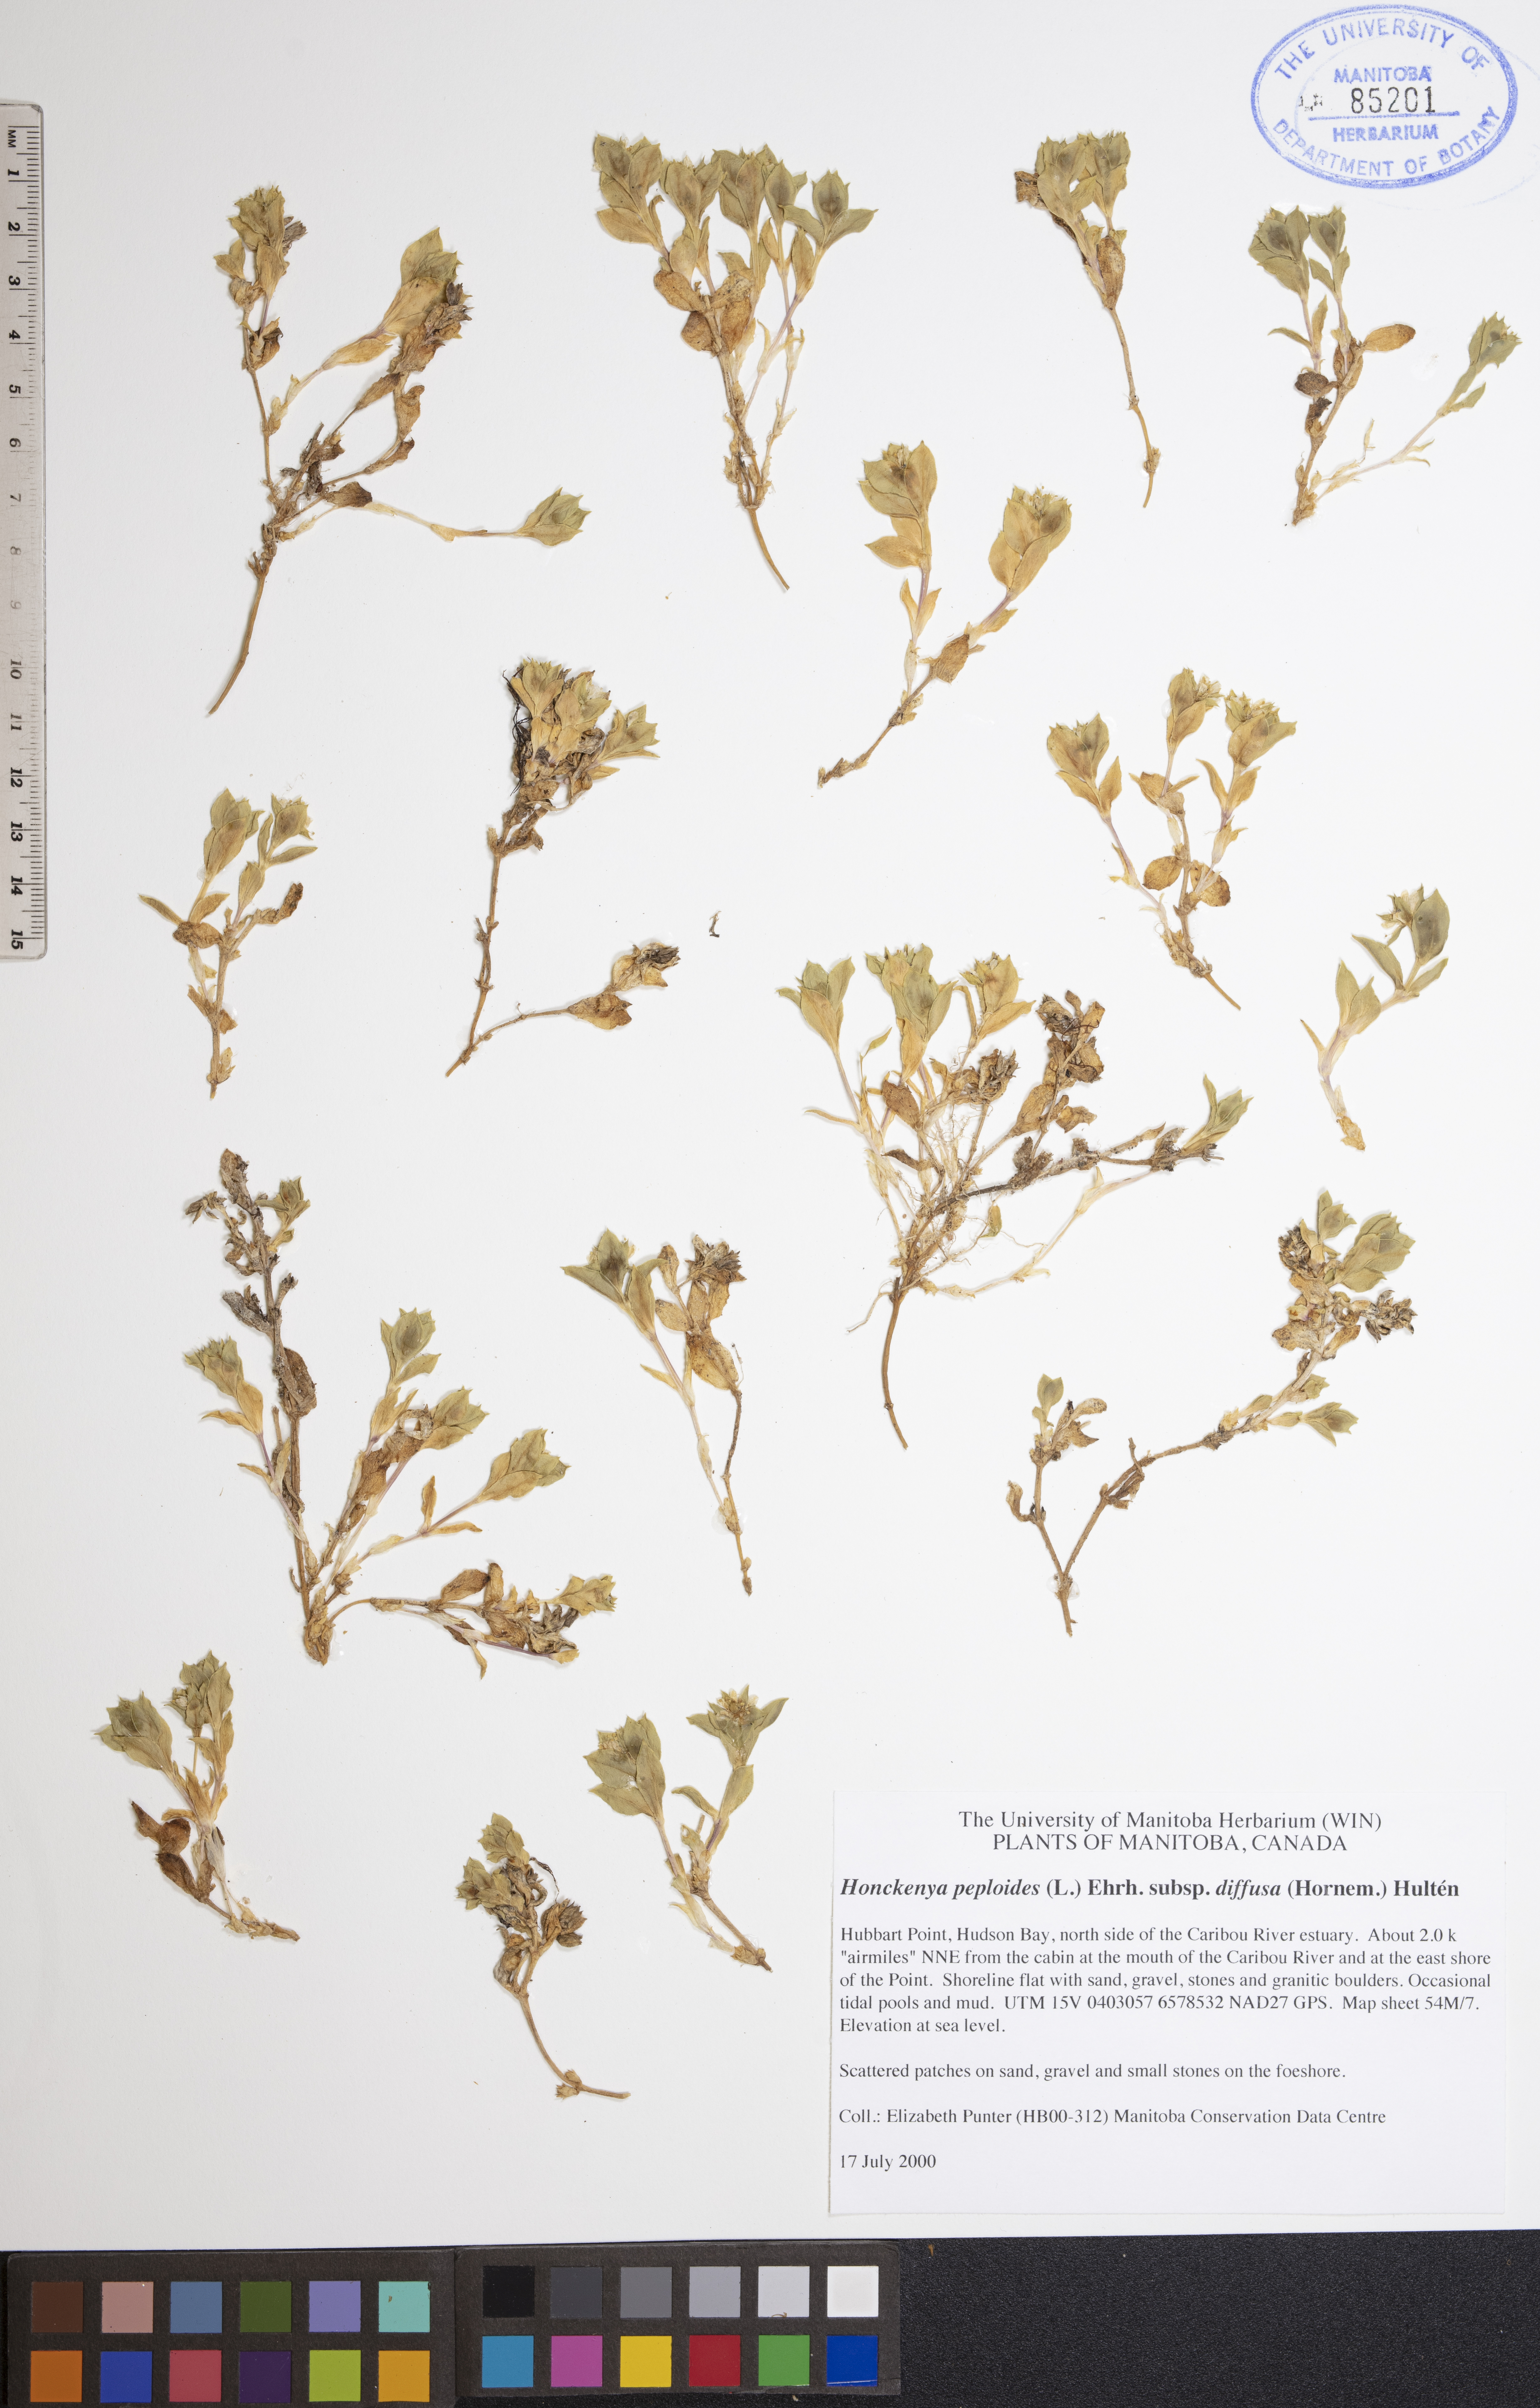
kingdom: Plantae
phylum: Tracheophyta
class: Magnoliopsida
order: Caryophyllales
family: Caryophyllaceae
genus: Honckenya
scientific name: Honckenya peploides
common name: Sea sandwort
